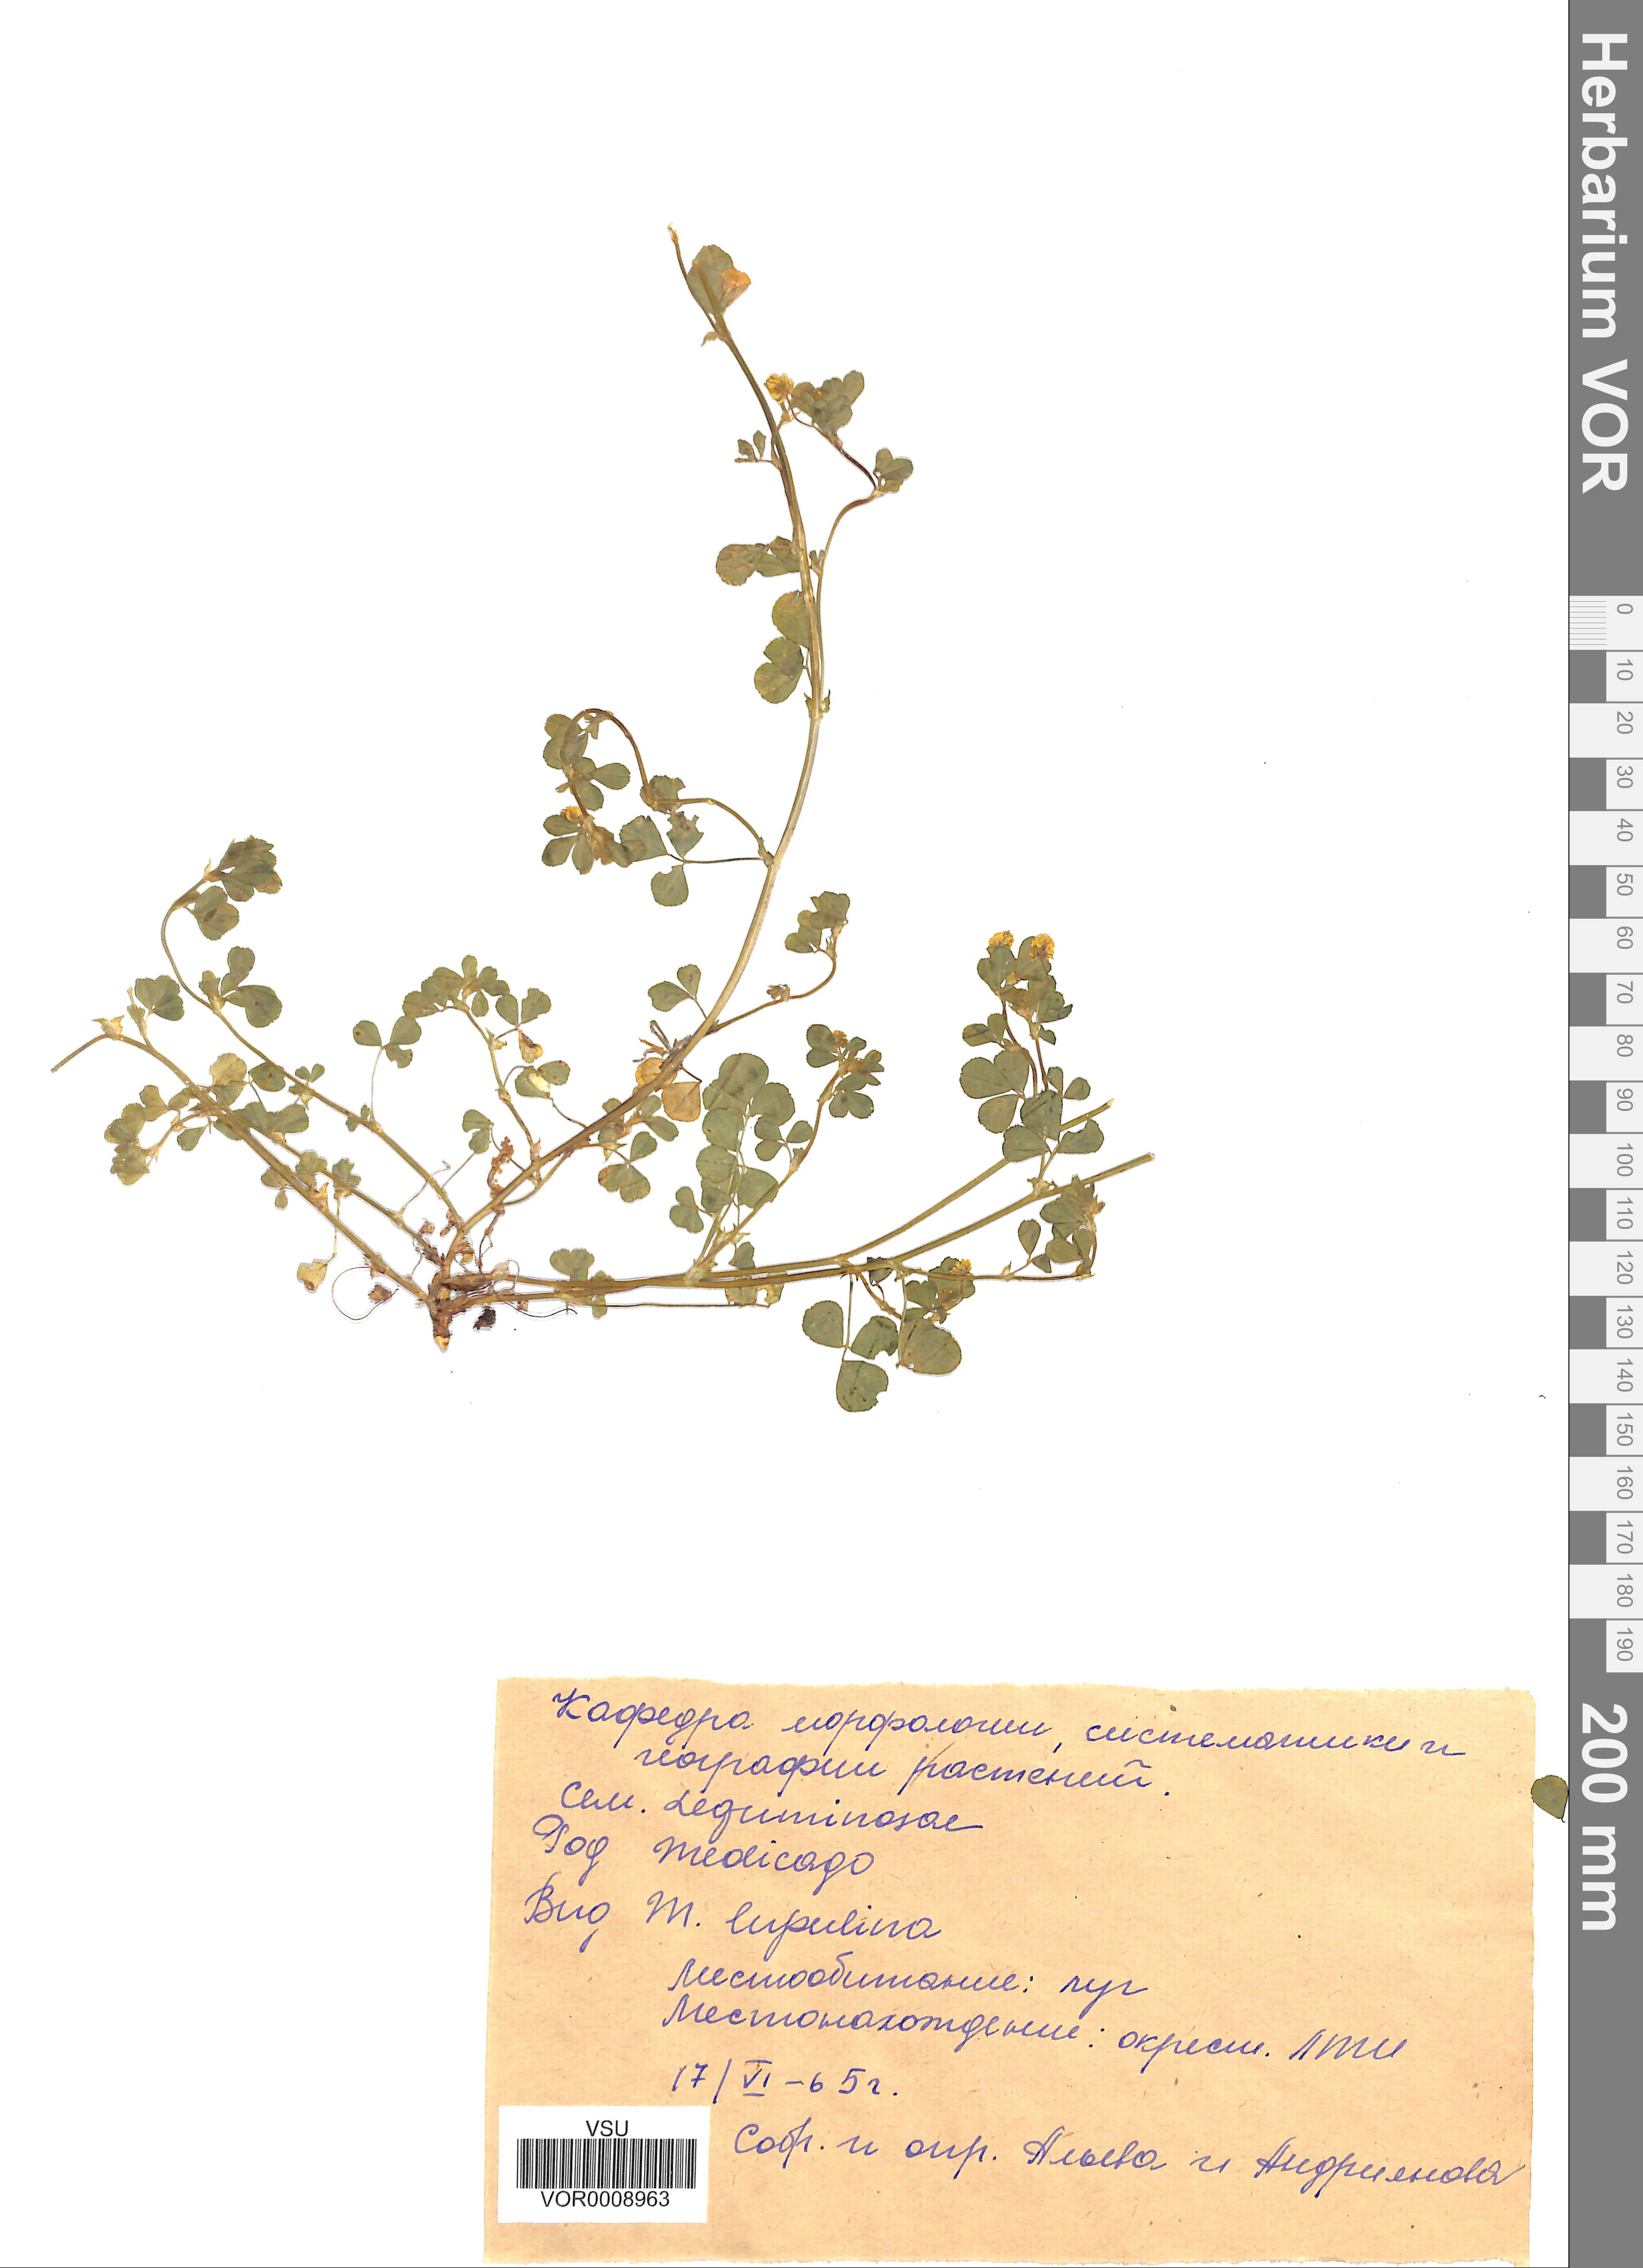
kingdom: Plantae
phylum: Tracheophyta
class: Magnoliopsida
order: Fabales
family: Fabaceae
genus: Medicago
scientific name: Medicago lupulina
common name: Black medick
